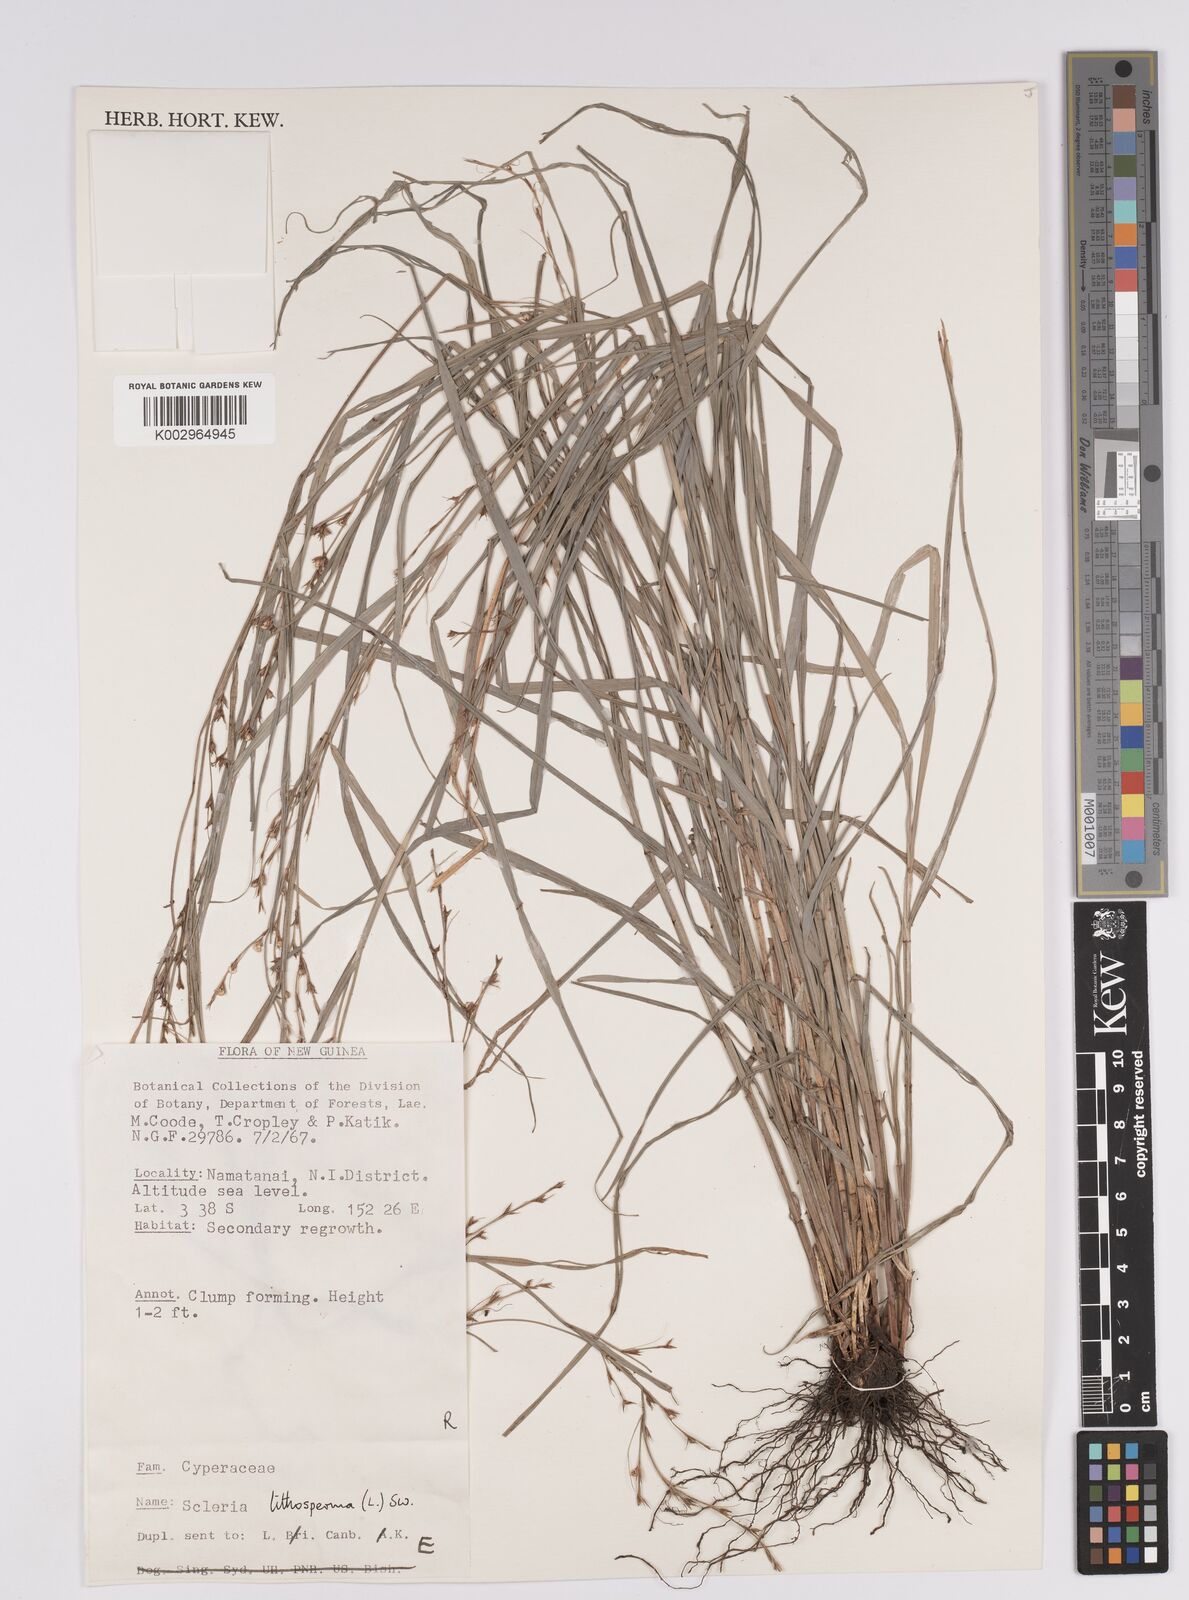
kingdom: Plantae
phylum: Tracheophyta
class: Liliopsida
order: Poales
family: Cyperaceae
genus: Scleria
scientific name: Scleria lithosperma
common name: Florida keys nut-rush
